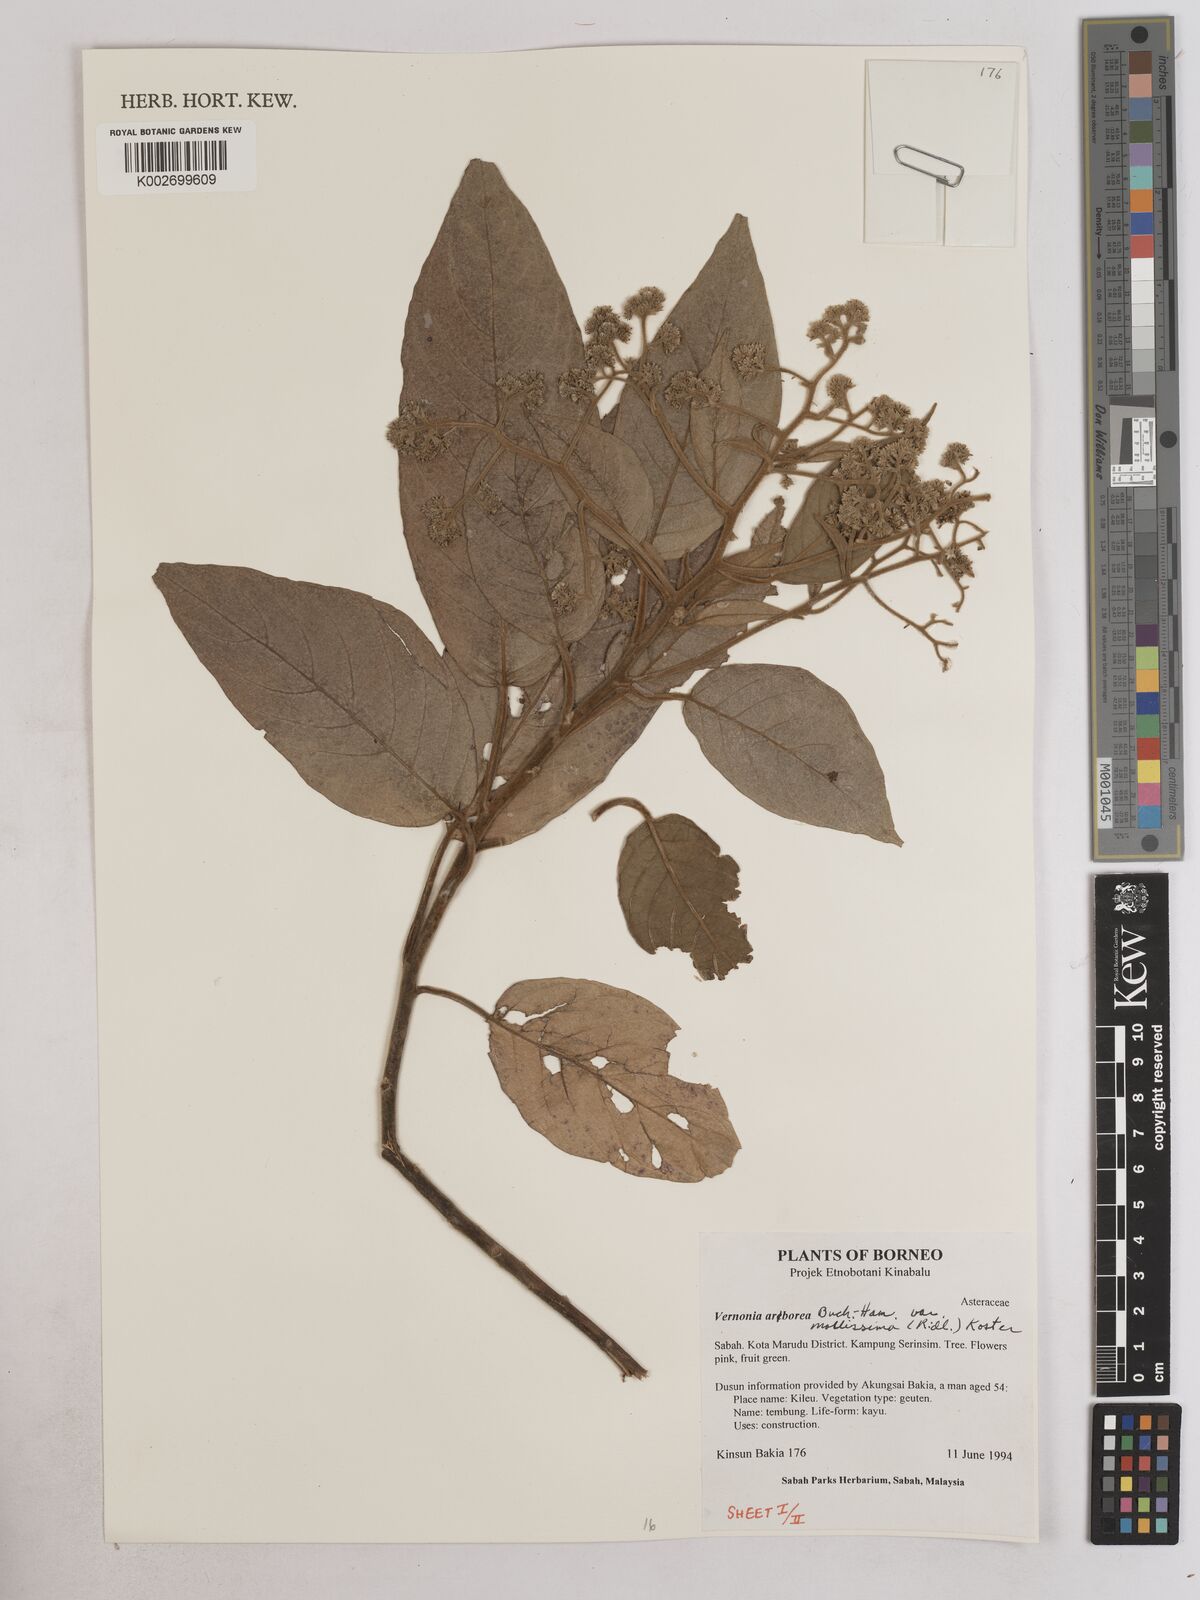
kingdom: Plantae
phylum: Tracheophyta
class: Magnoliopsida
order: Asterales
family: Asteraceae
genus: Strobocalyx
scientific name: Strobocalyx arborea
